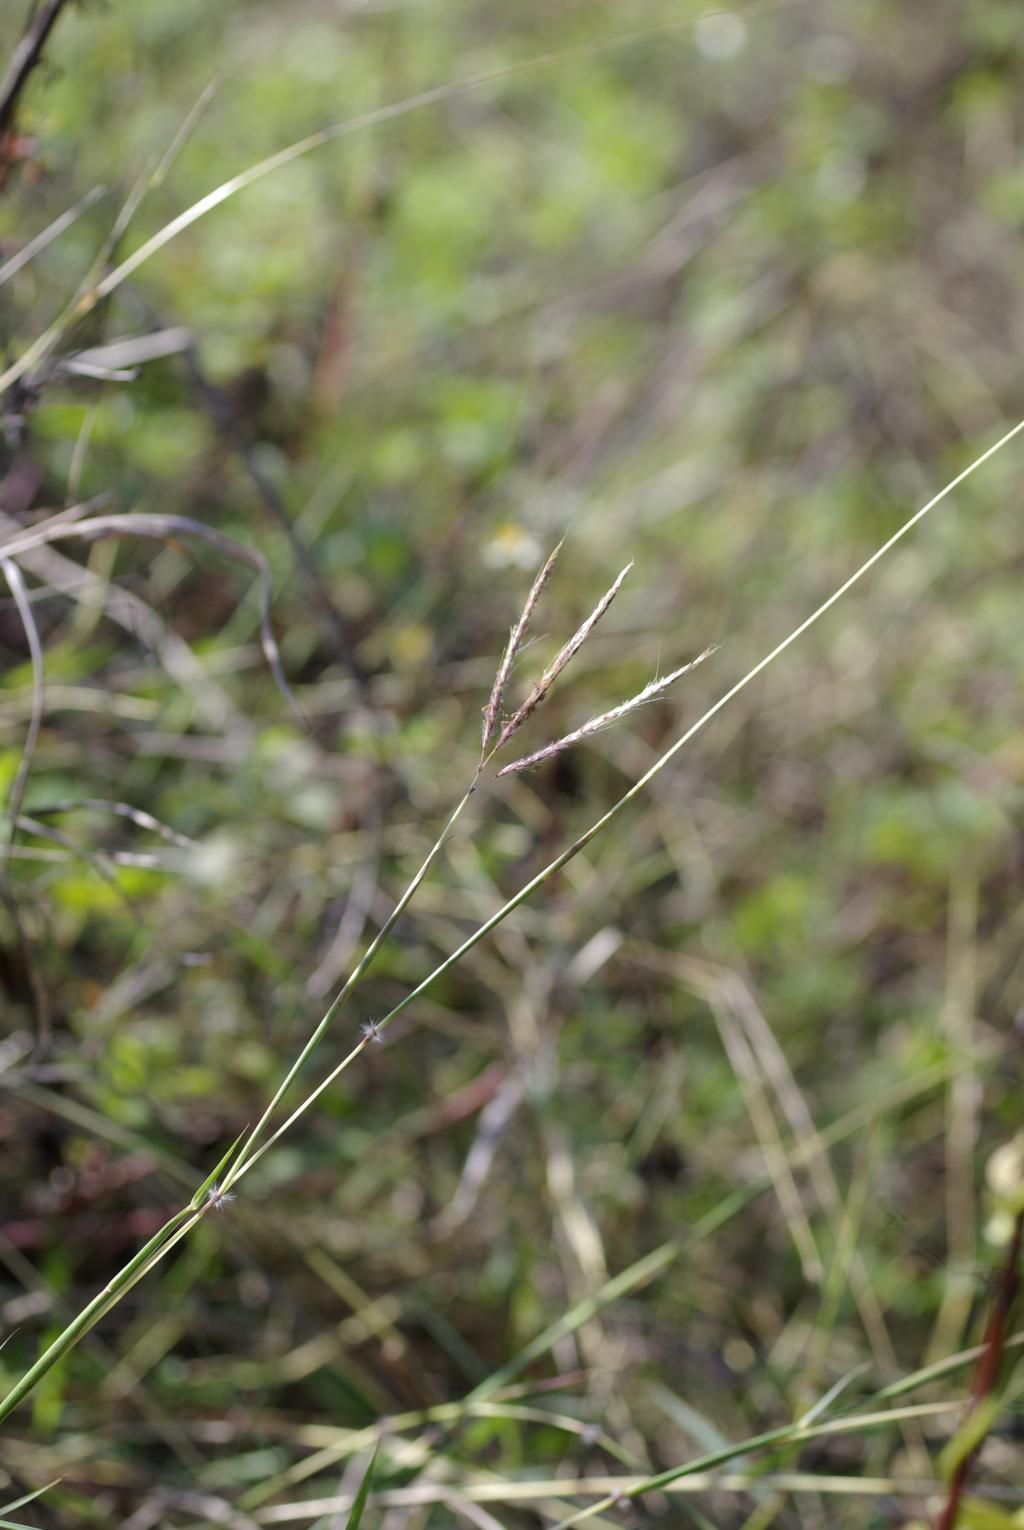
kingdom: Plantae
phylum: Tracheophyta
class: Liliopsida
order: Poales
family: Poaceae
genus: Bothriochloa
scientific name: Bothriochloa bladhii
